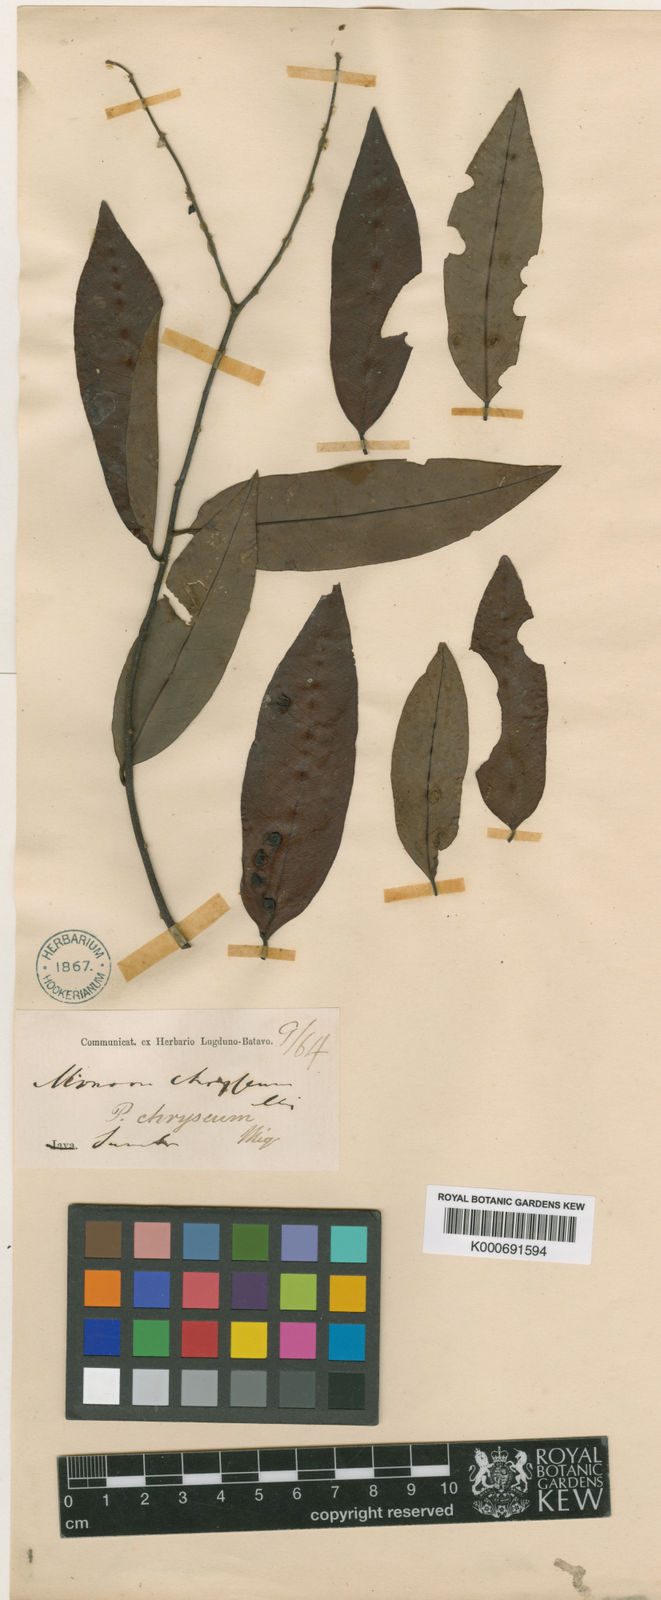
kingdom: Plantae
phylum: Tracheophyta
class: Magnoliopsida
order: Magnoliales
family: Annonaceae
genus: Polyalthia
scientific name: Polyalthia
